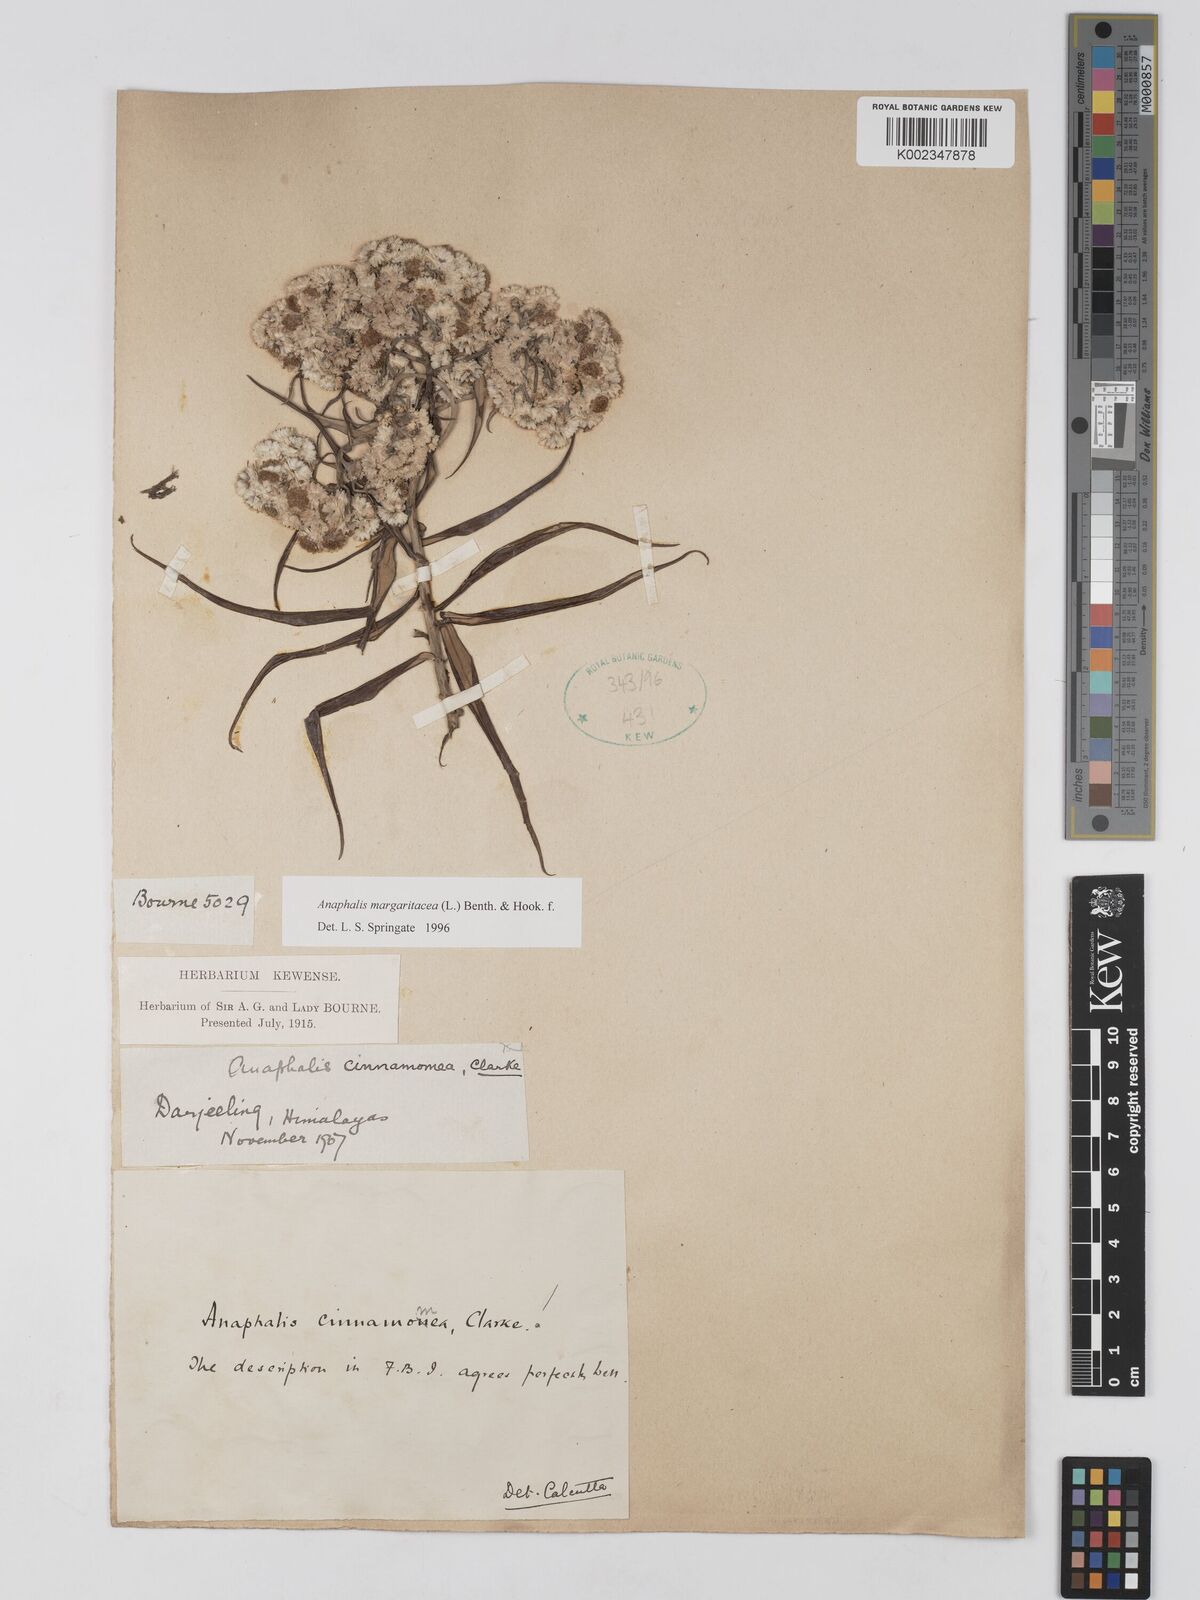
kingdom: Plantae
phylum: Tracheophyta
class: Magnoliopsida
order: Asterales
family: Asteraceae
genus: Anaphalis
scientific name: Anaphalis margaritacea
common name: Pearly everlasting
